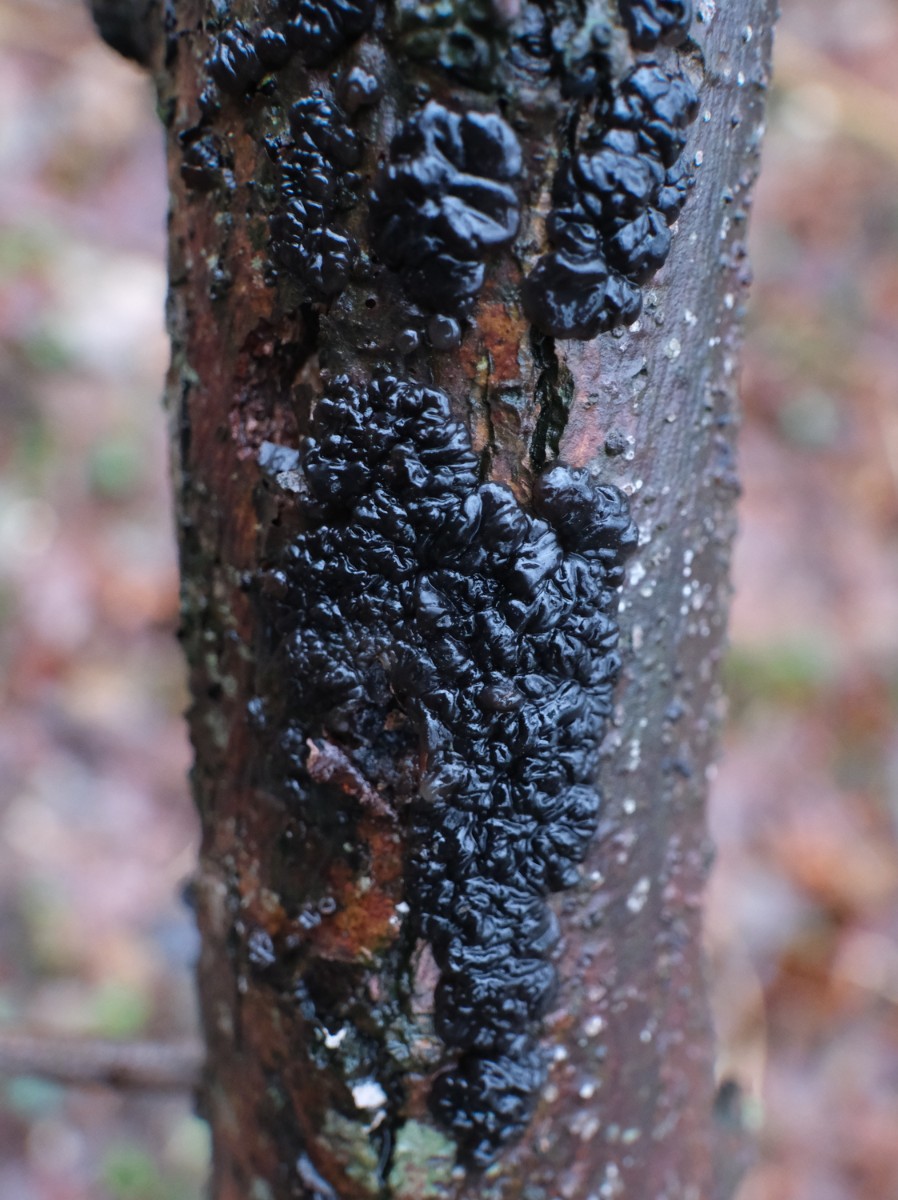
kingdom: Fungi
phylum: Basidiomycota
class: Agaricomycetes
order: Auriculariales
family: Auriculariaceae
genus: Exidia
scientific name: Exidia nigricans
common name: almindelig bævretop
